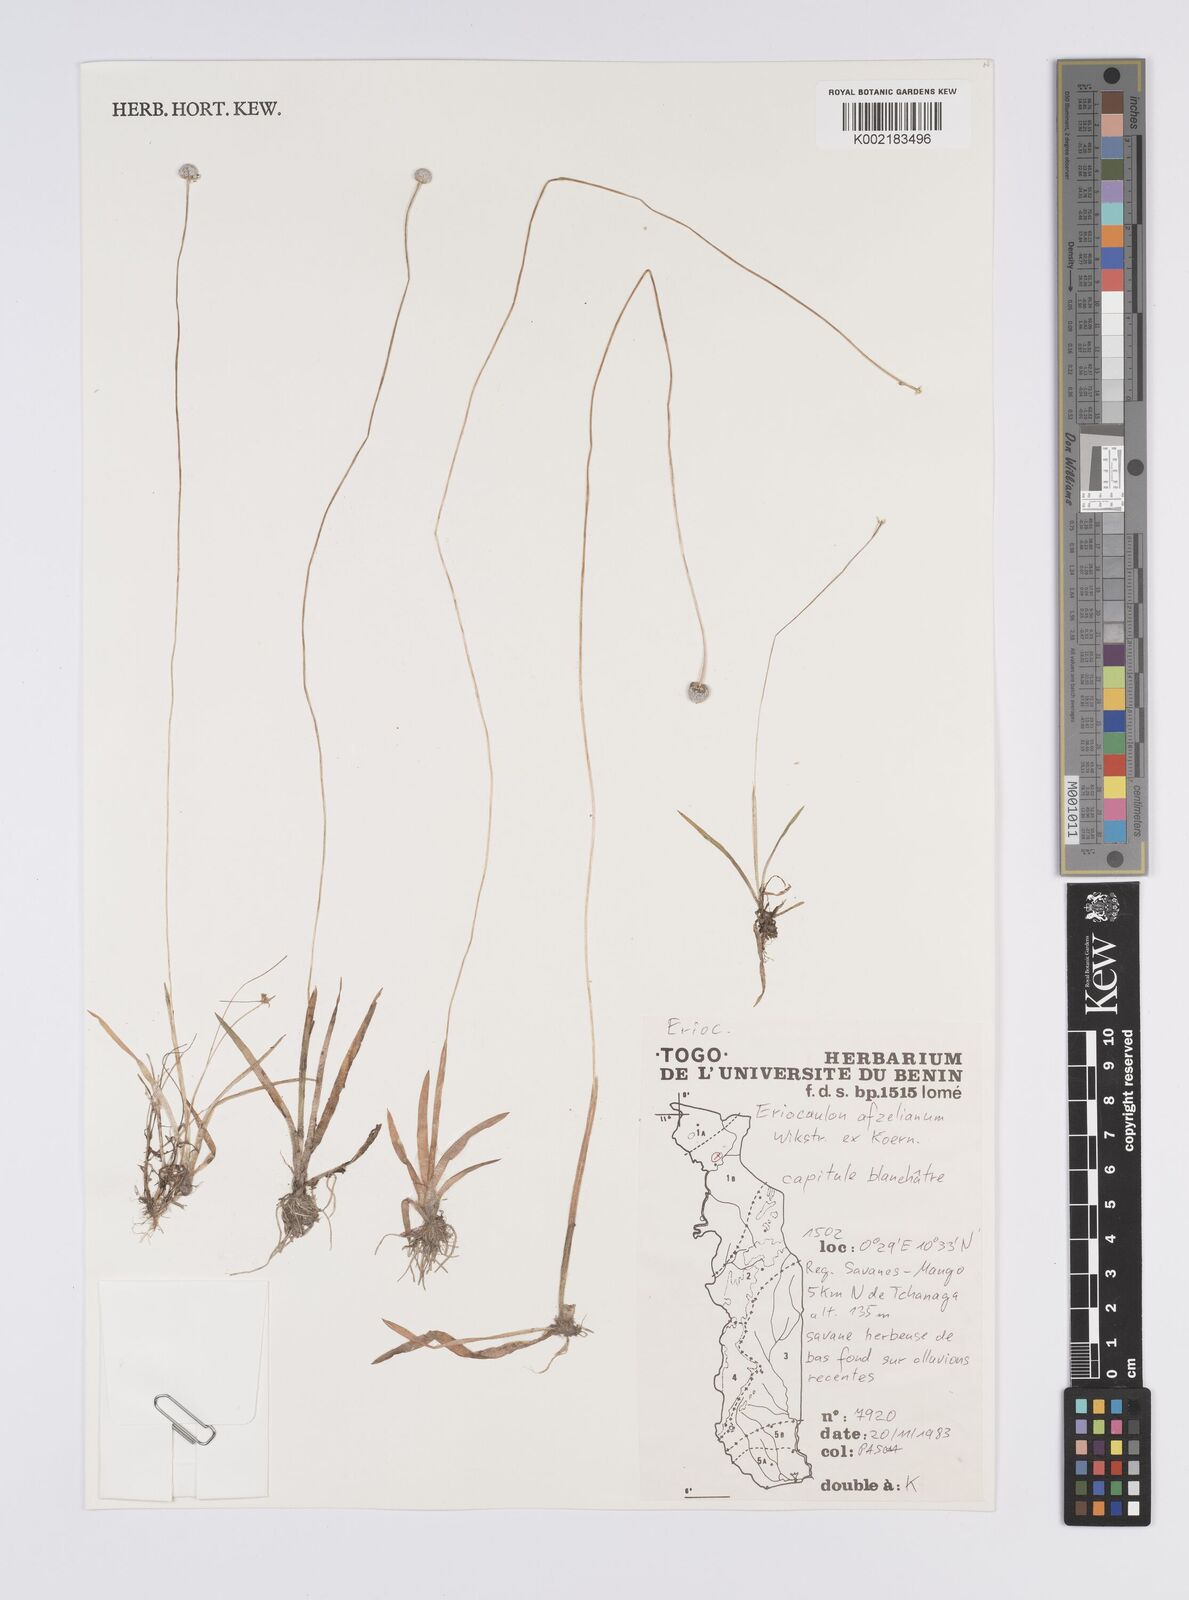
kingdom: Plantae
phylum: Tracheophyta
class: Liliopsida
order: Poales
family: Eriocaulaceae
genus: Eriocaulon
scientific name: Eriocaulon afzelianum
